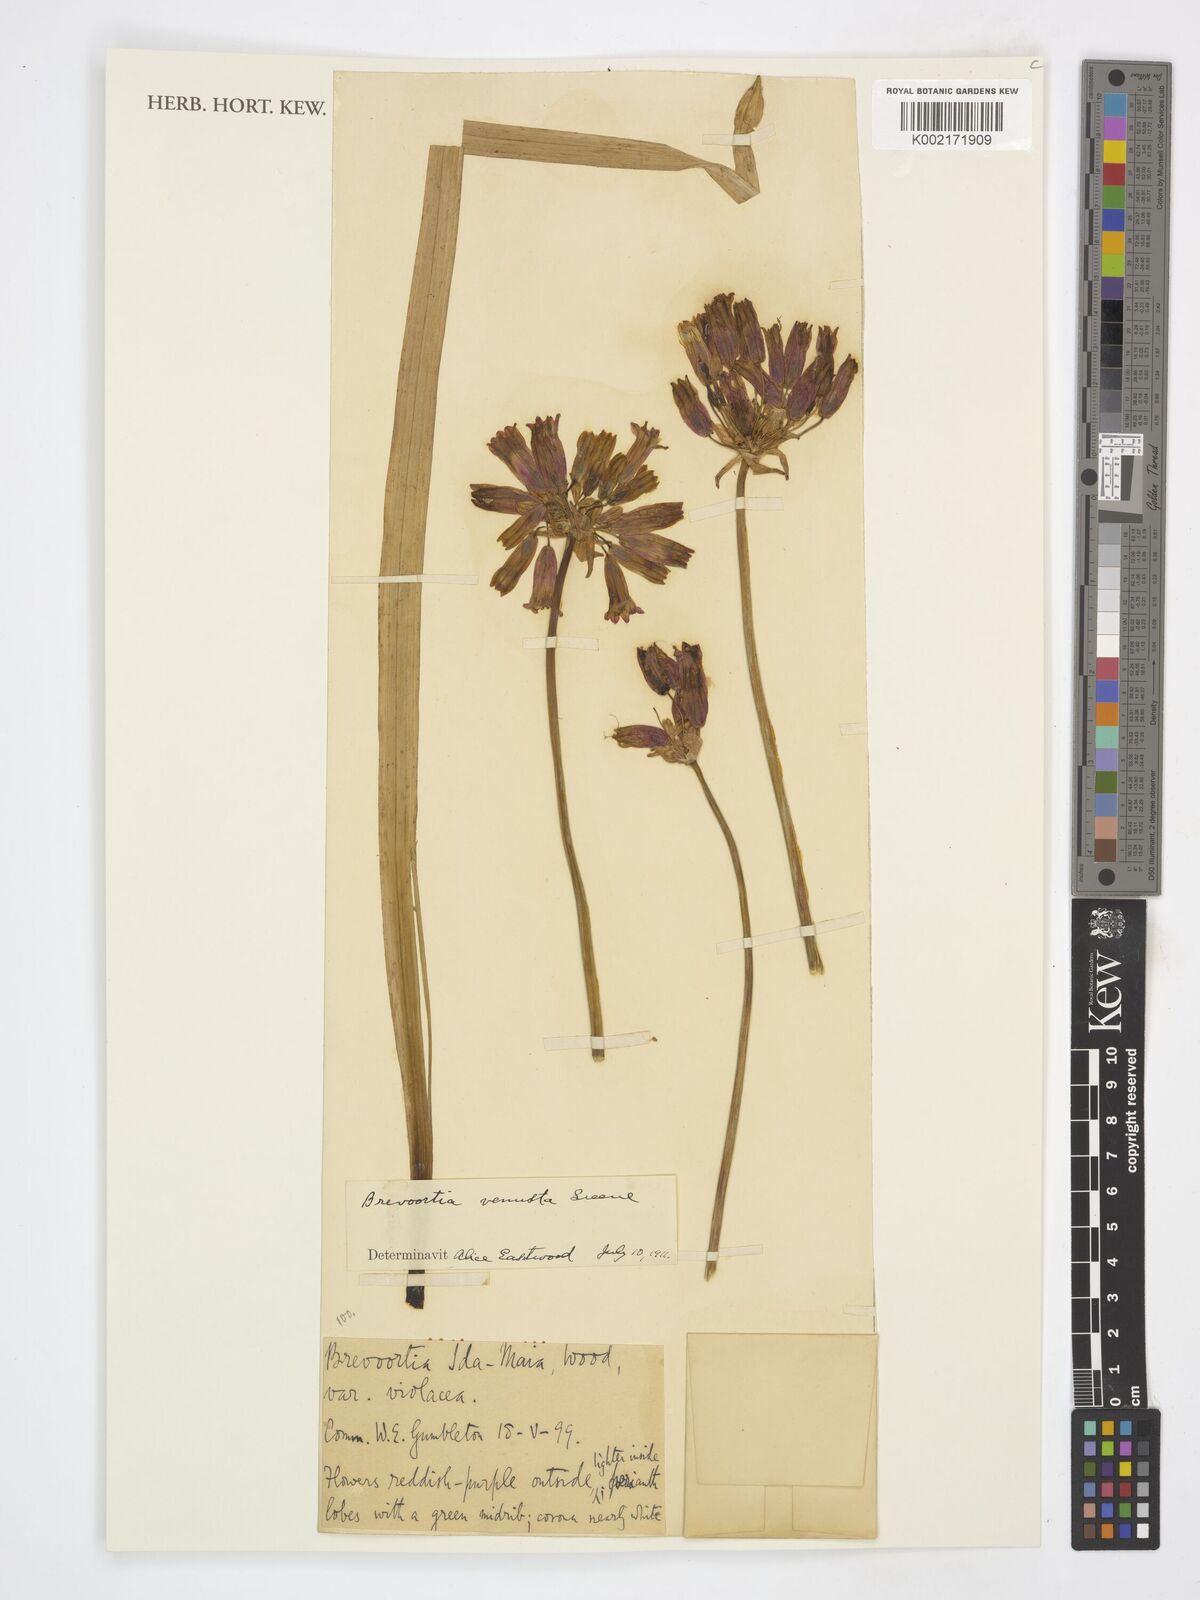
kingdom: Plantae
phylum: Tracheophyta
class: Liliopsida
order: Asparagales
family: Asparagaceae
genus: Dichelostemma
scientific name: Dichelostemma
